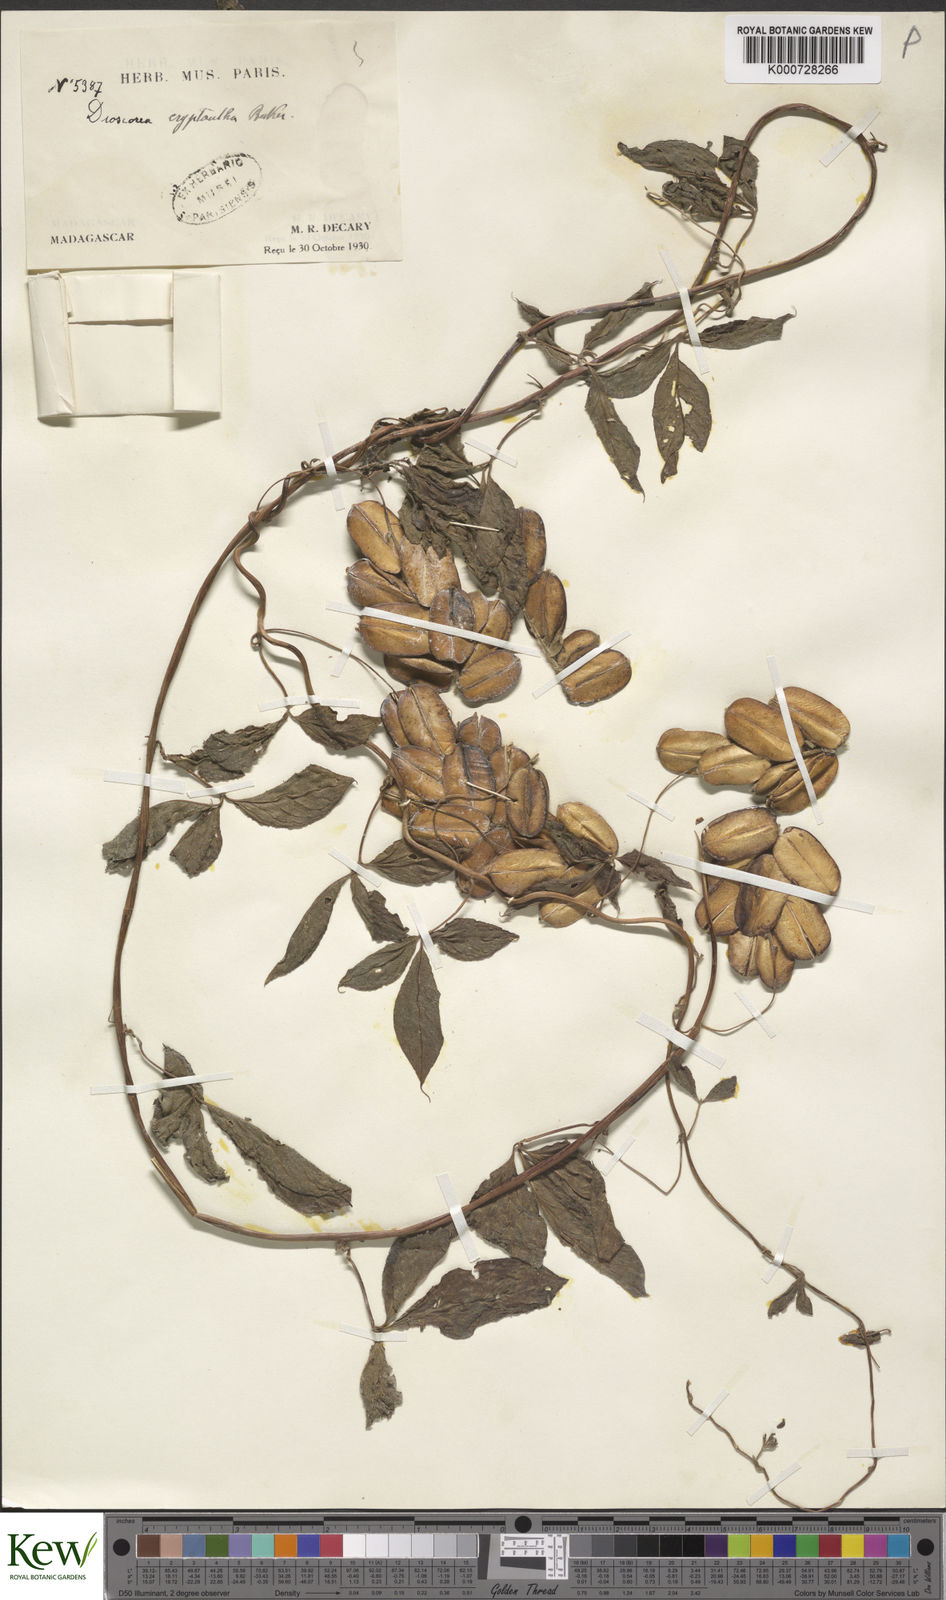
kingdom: Plantae
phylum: Tracheophyta
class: Liliopsida
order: Dioscoreales
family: Dioscoreaceae
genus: Dioscorea
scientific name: Dioscorea quartiniana
